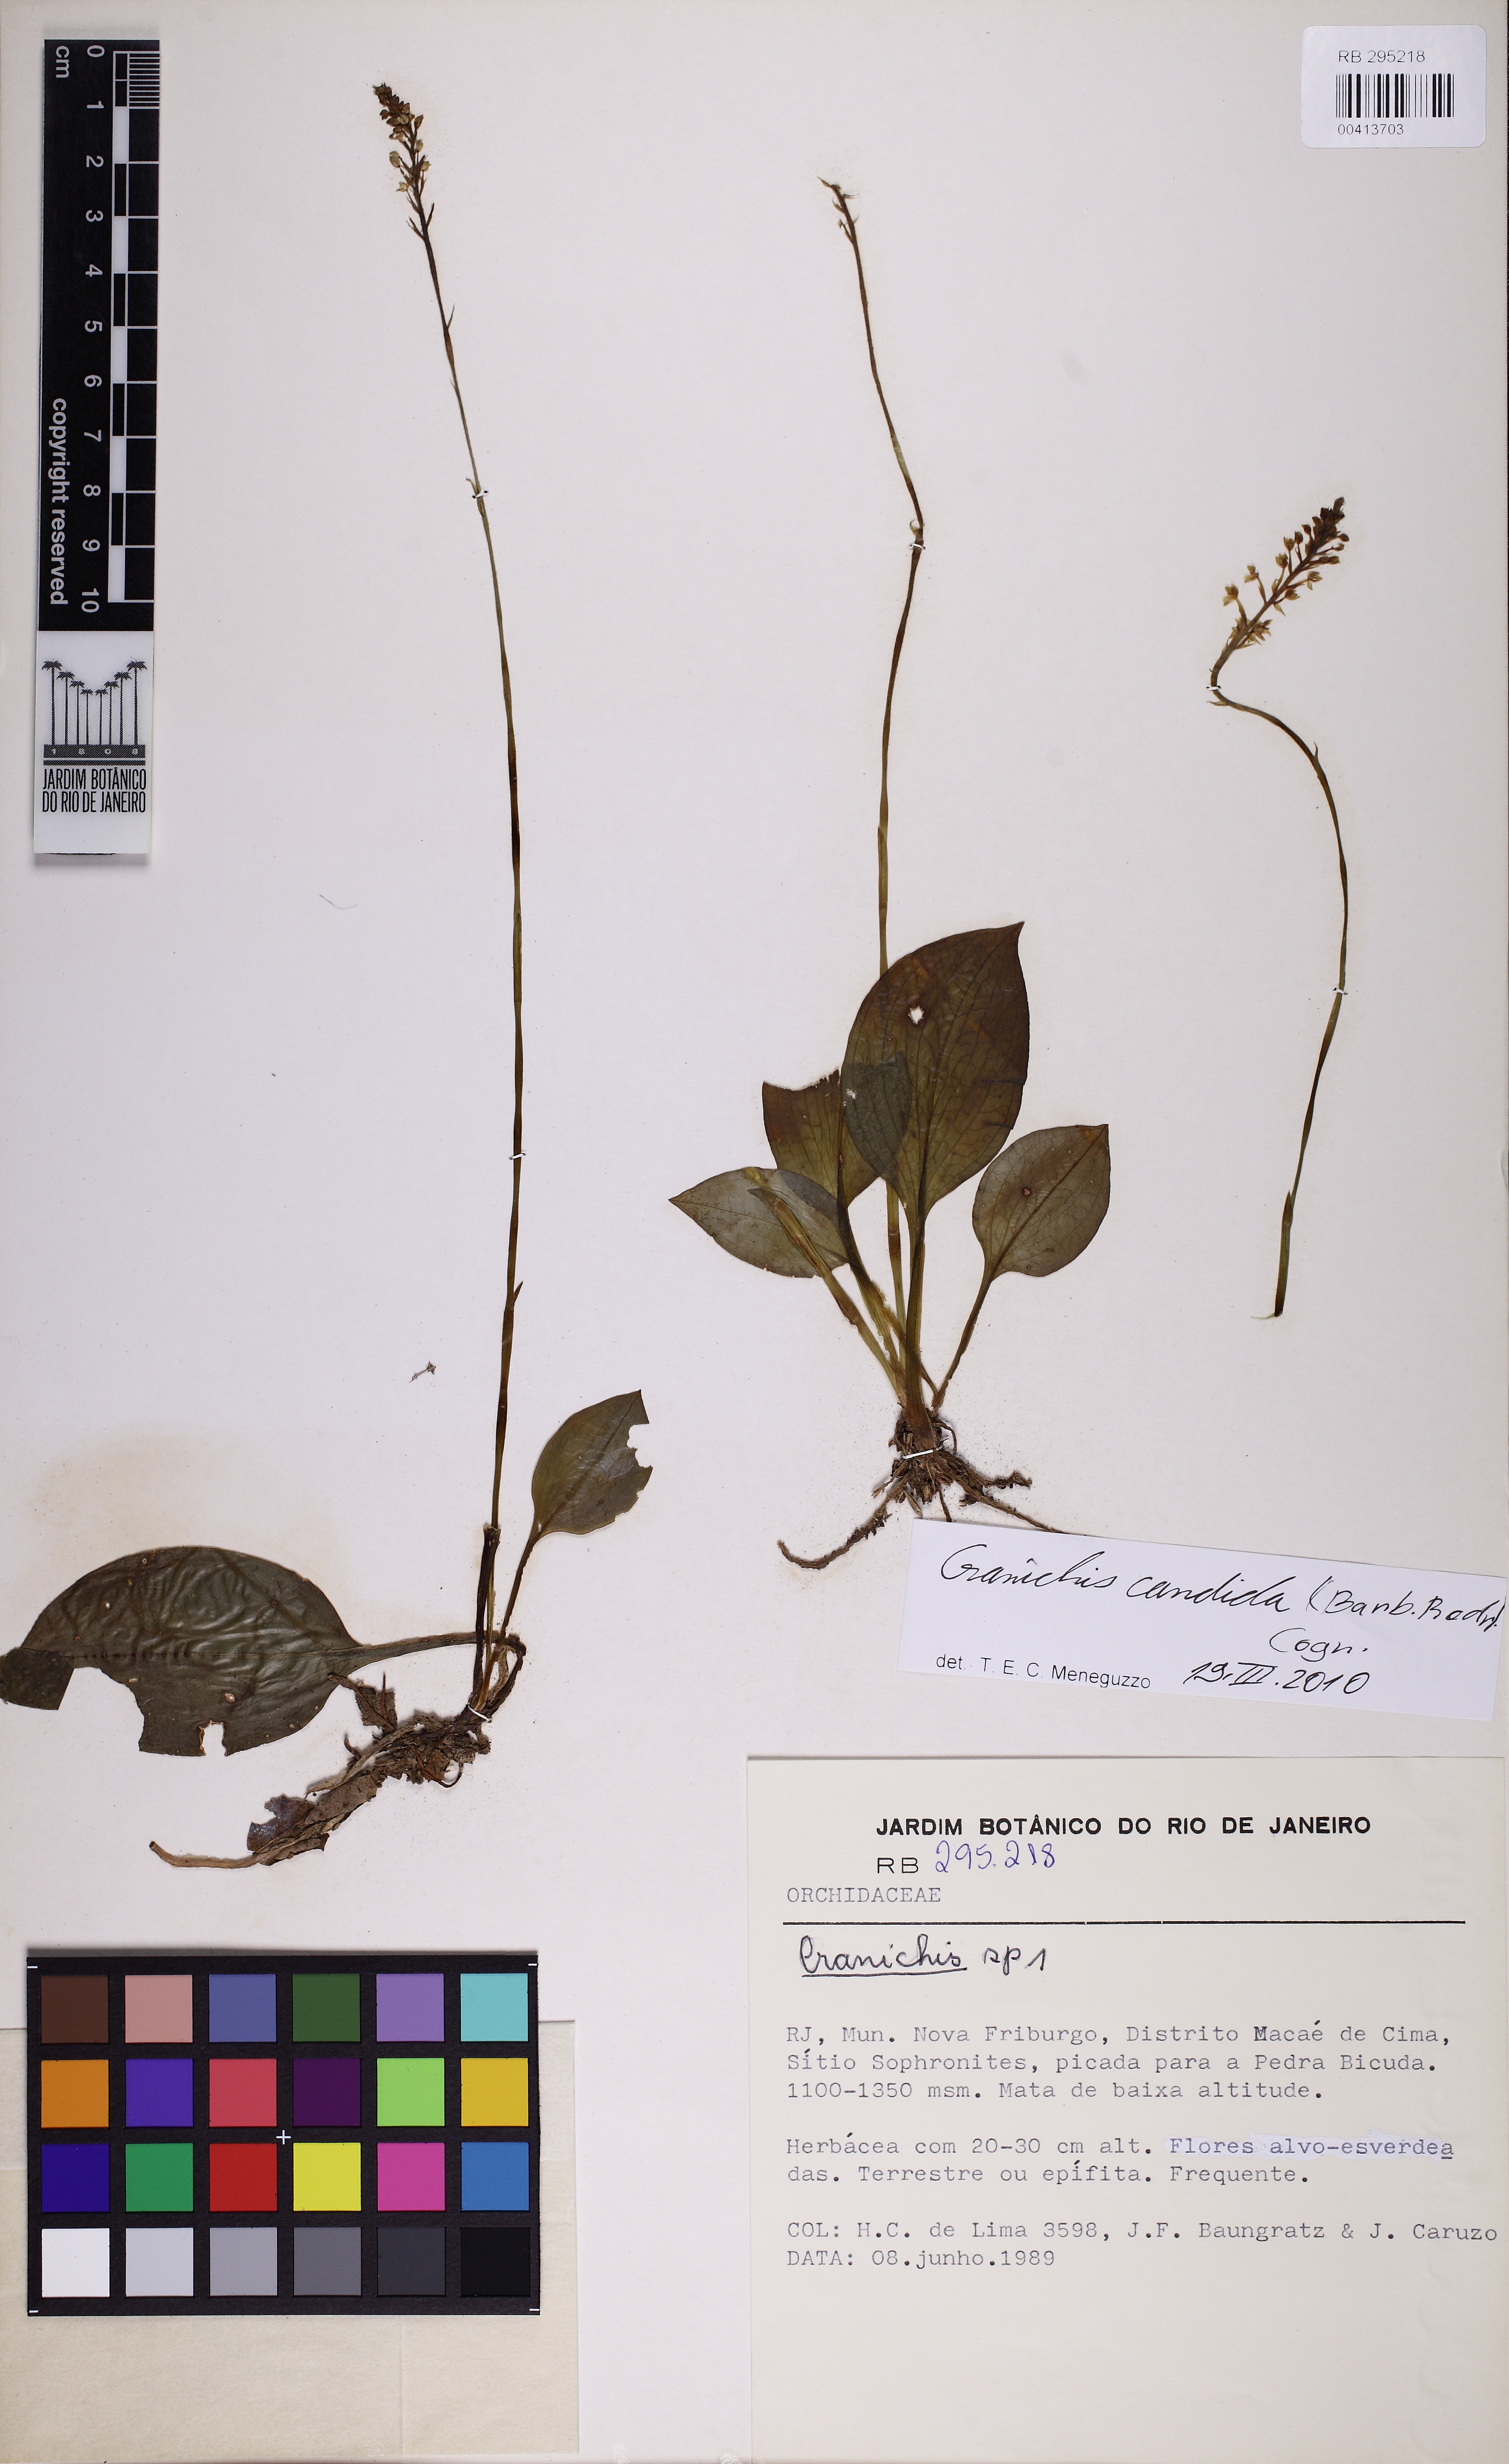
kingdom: Plantae
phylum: Tracheophyta
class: Liliopsida
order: Asparagales
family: Orchidaceae
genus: Cranichis
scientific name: Cranichis candida
